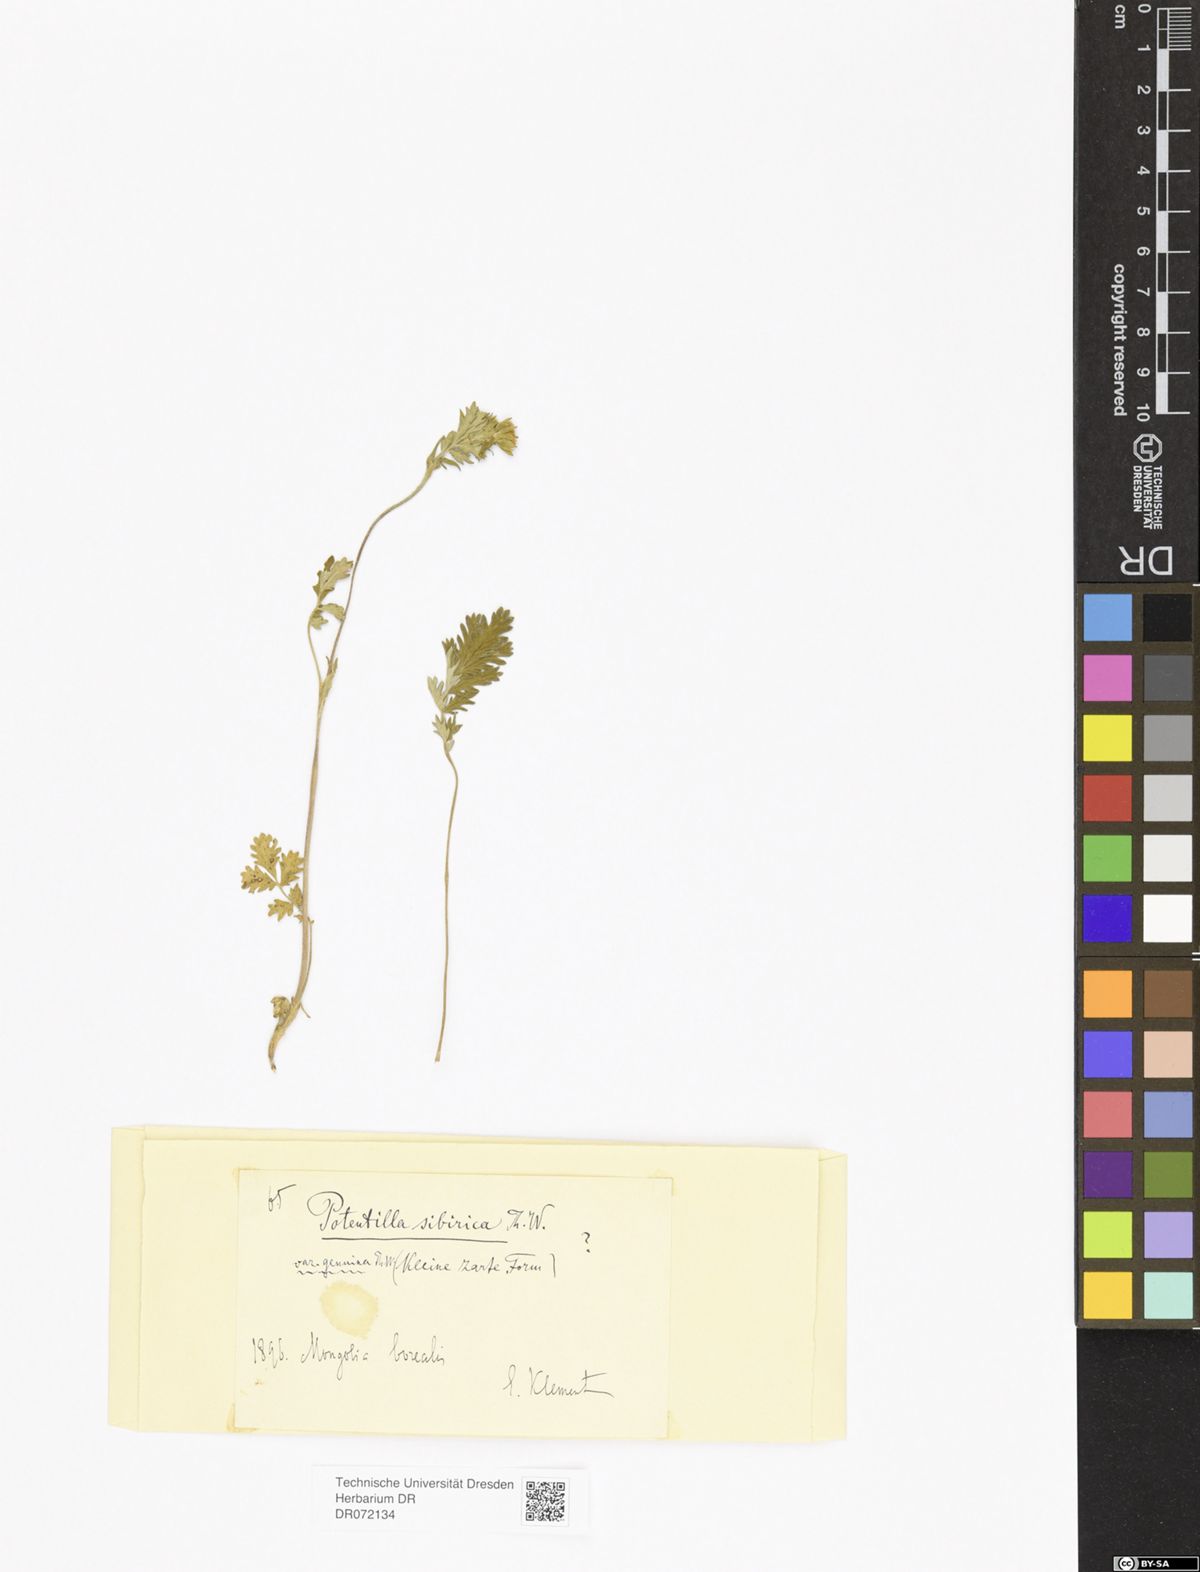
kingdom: Plantae
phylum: Tracheophyta
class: Magnoliopsida
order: Rosales
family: Rosaceae
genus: Potentilla
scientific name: Potentilla pensylvanica
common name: Pennsylvania cinquefoil
